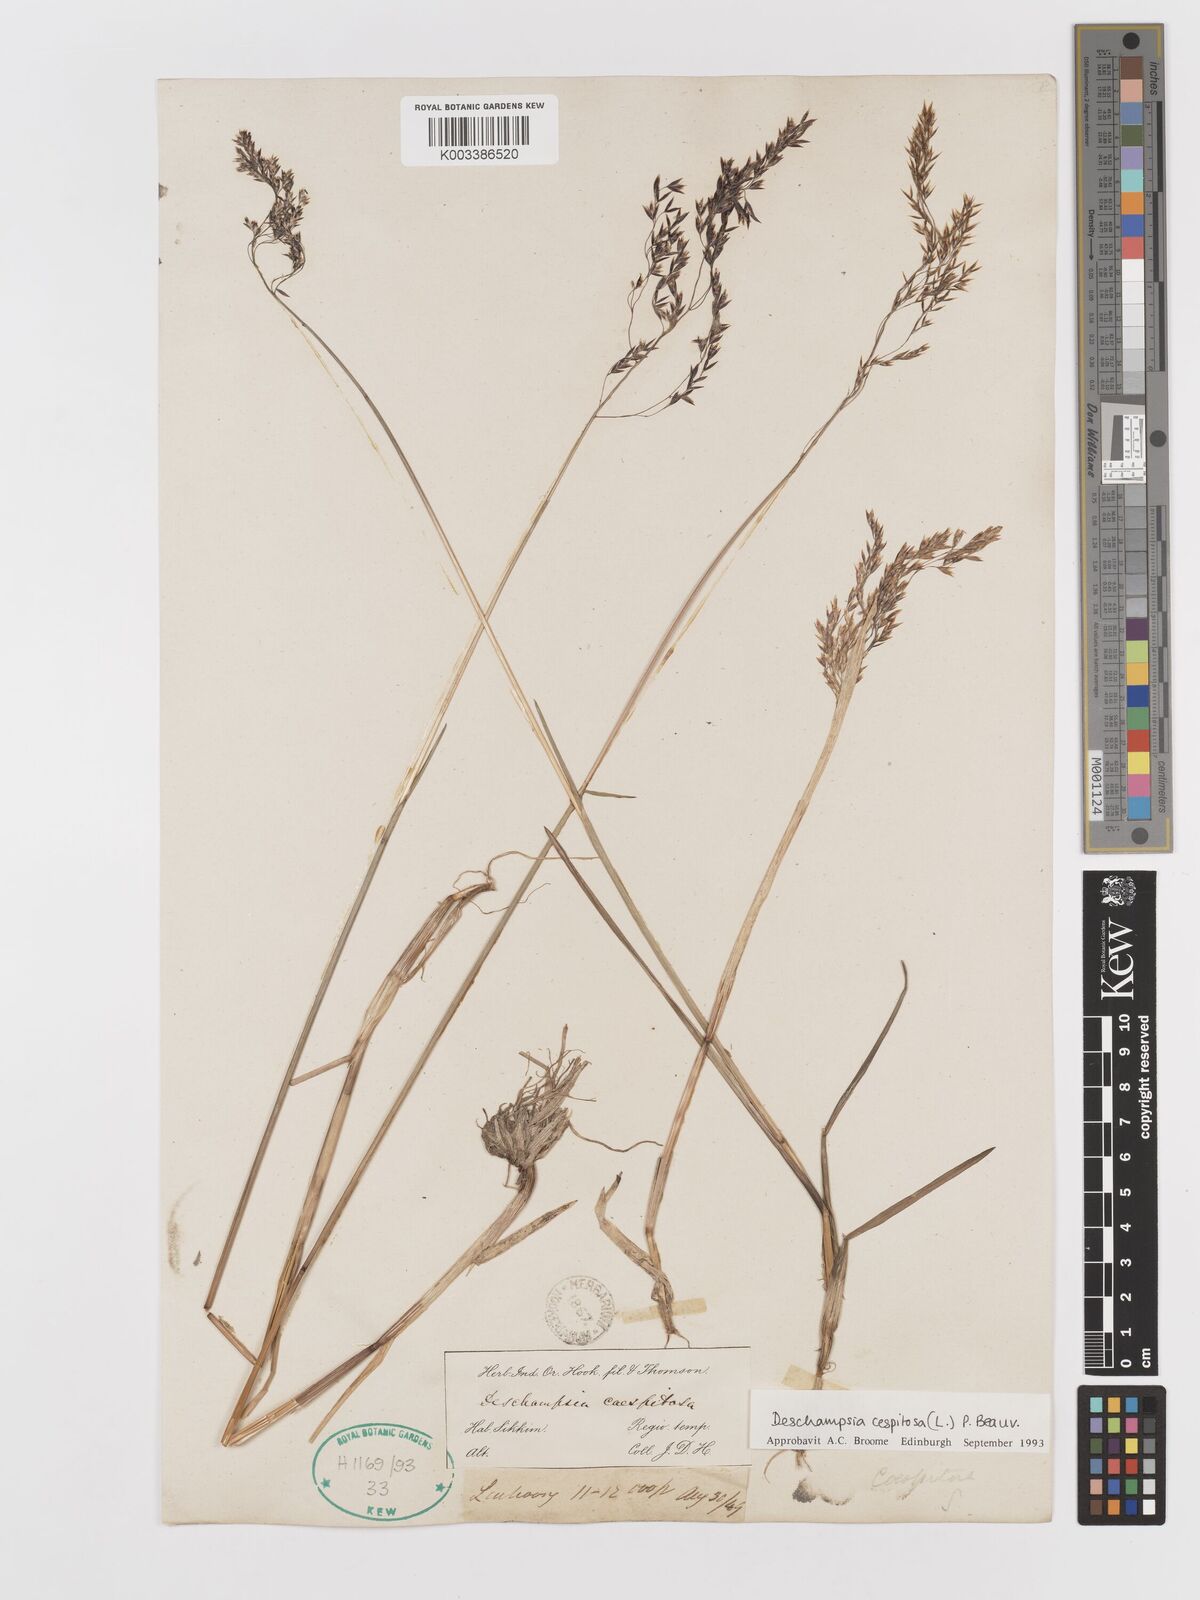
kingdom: Plantae
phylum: Tracheophyta
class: Liliopsida
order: Poales
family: Poaceae
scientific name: Poaceae
